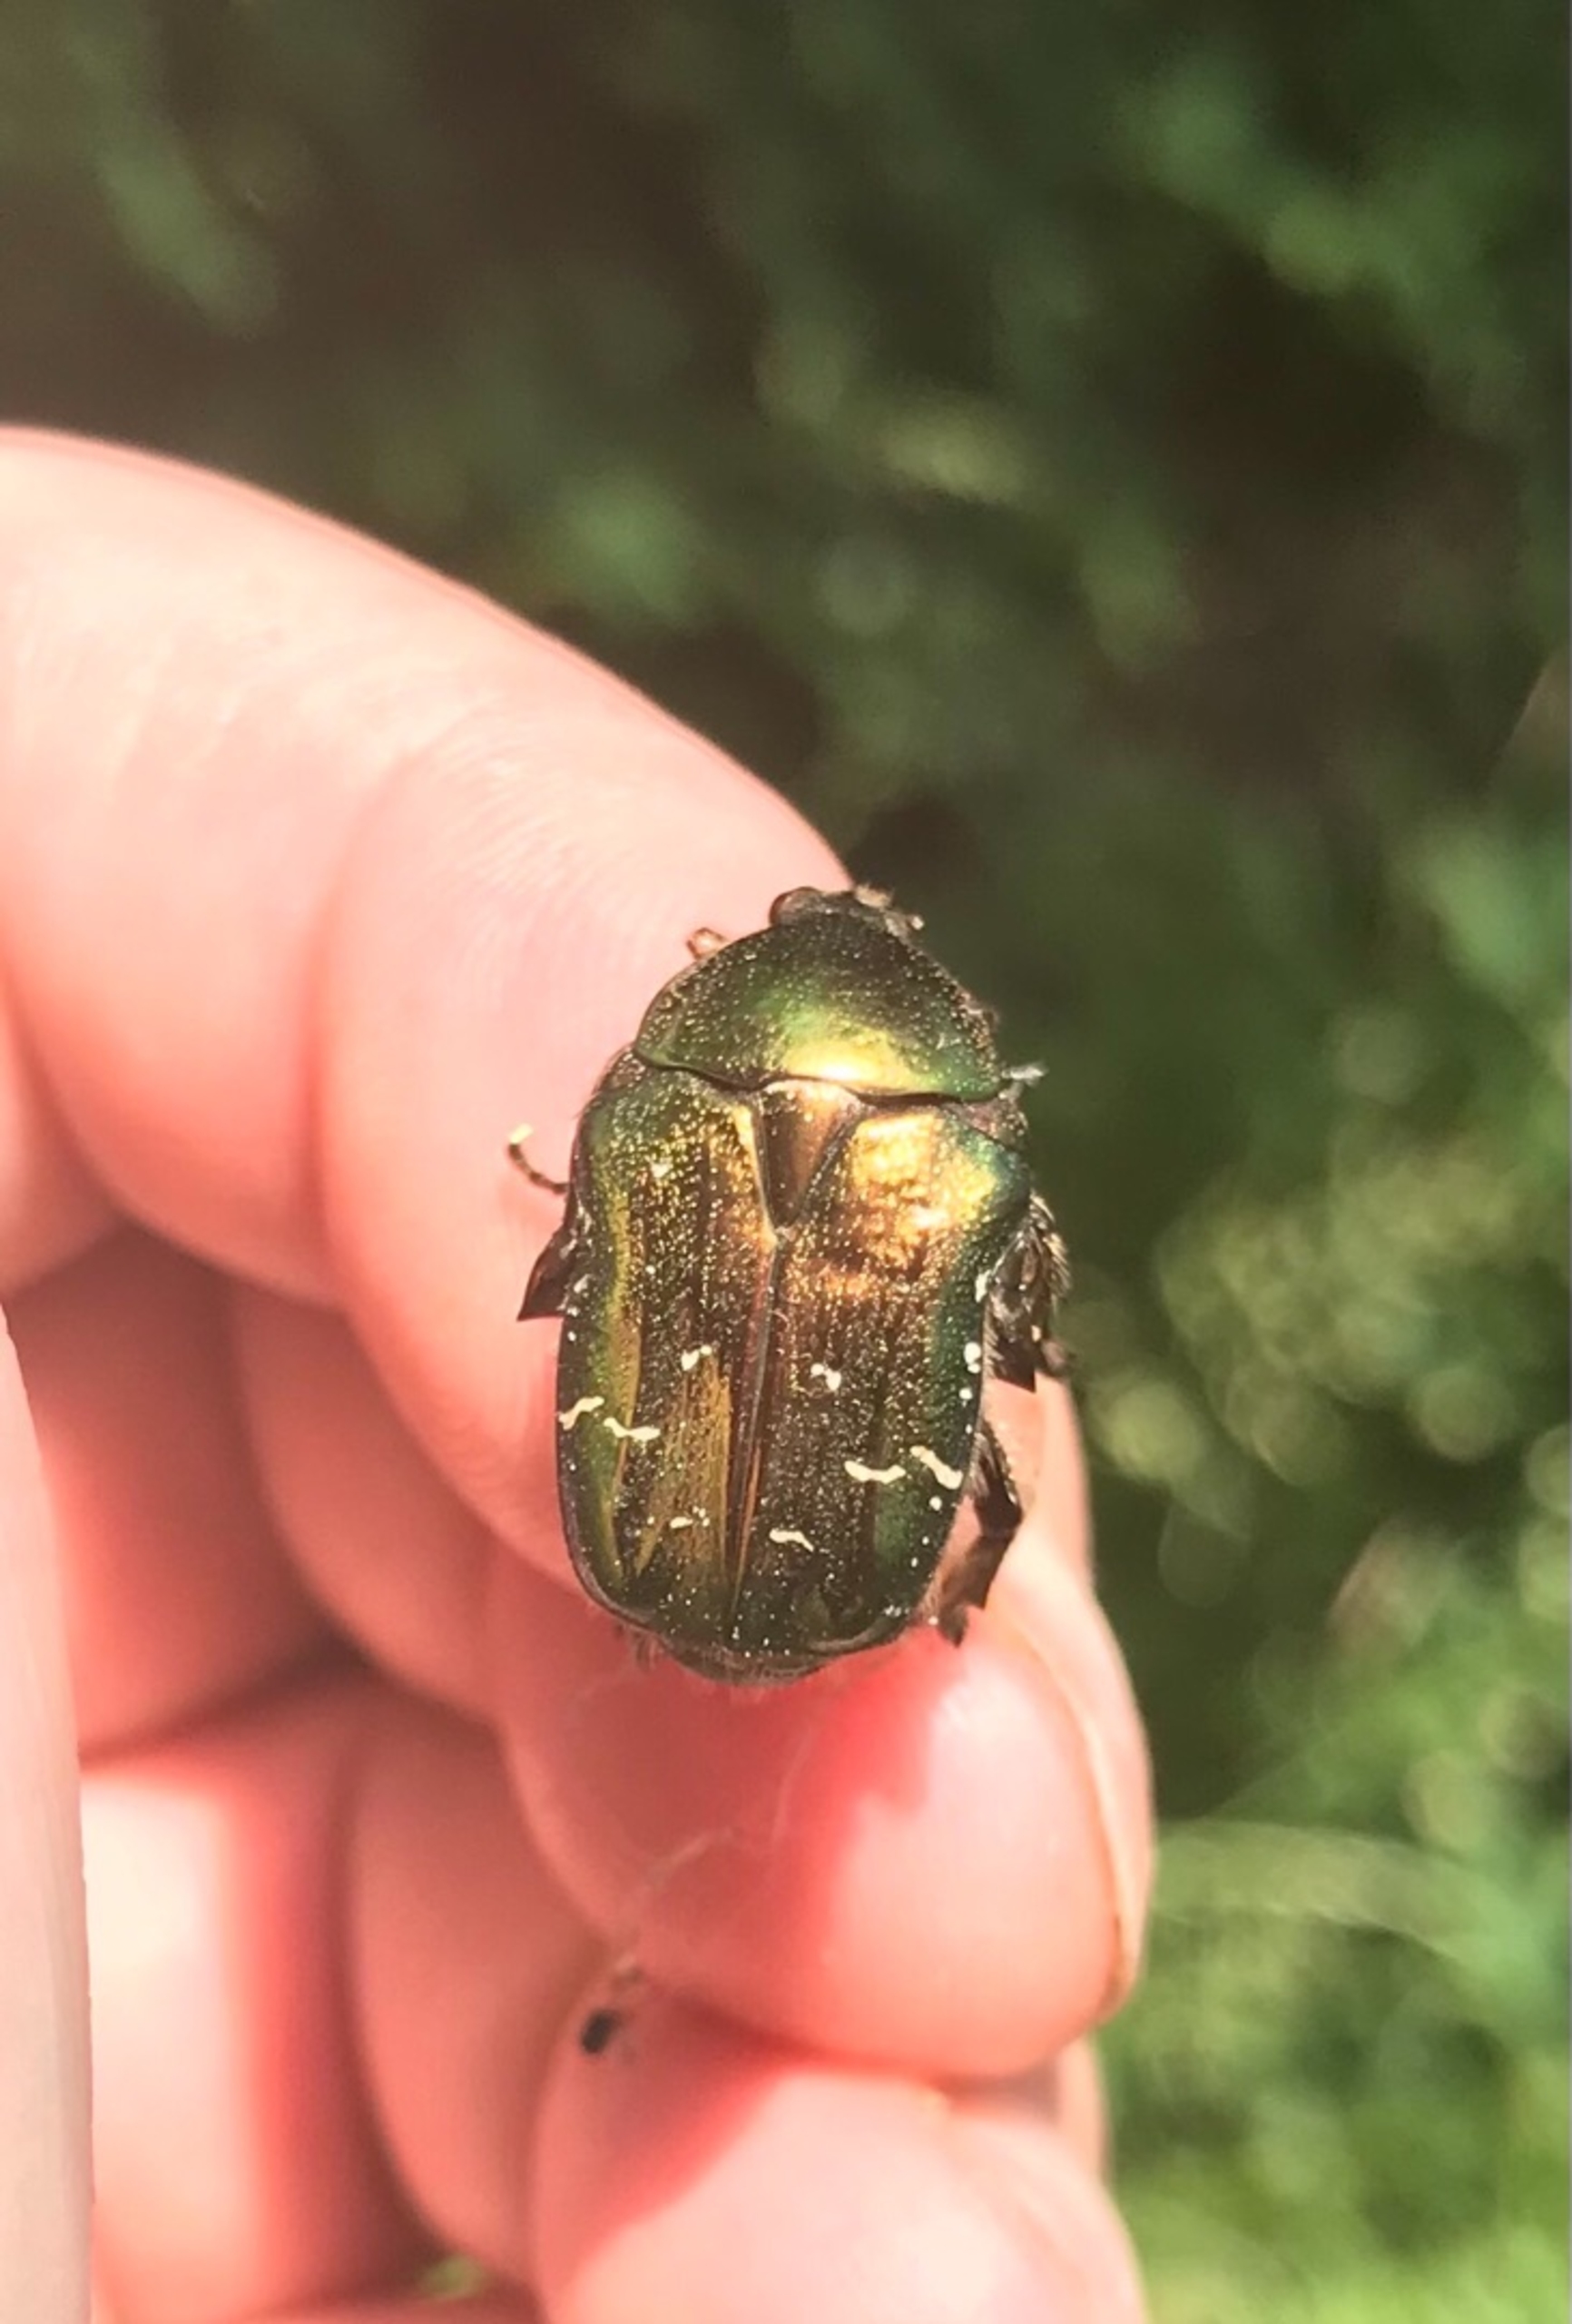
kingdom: Animalia
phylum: Arthropoda
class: Insecta
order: Coleoptera
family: Scarabaeidae
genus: Cetonia
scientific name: Cetonia aurata
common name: Grøn guldbasse
